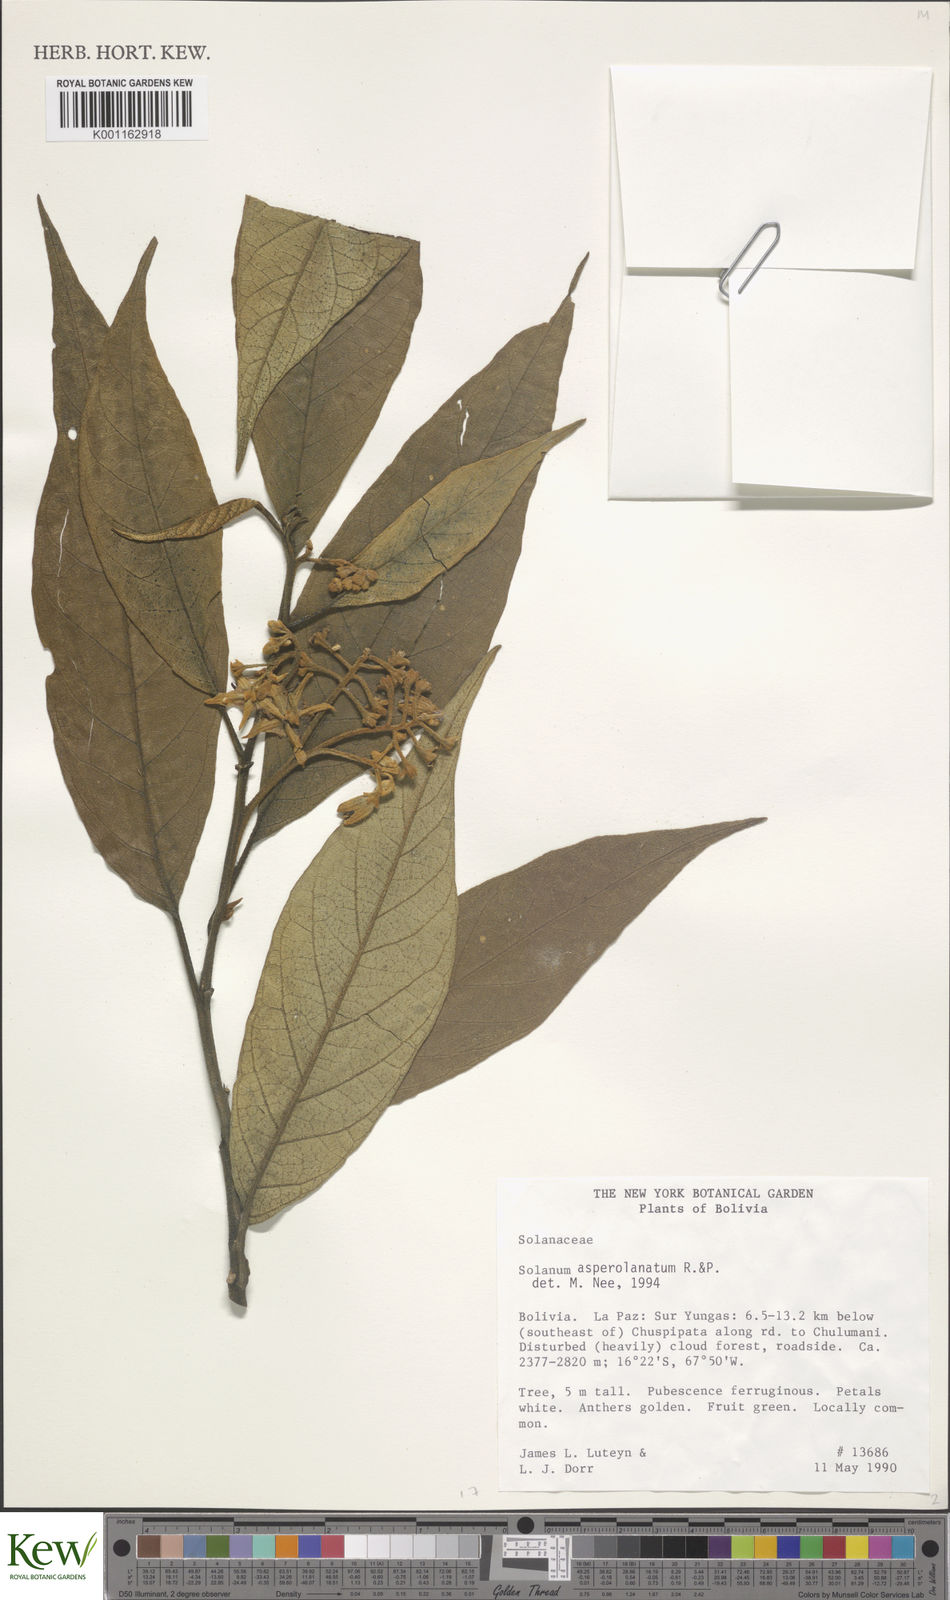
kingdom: Plantae
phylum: Tracheophyta
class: Magnoliopsida
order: Solanales
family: Solanaceae
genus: Solanum
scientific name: Solanum asperolanatum
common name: Devil's-fig
